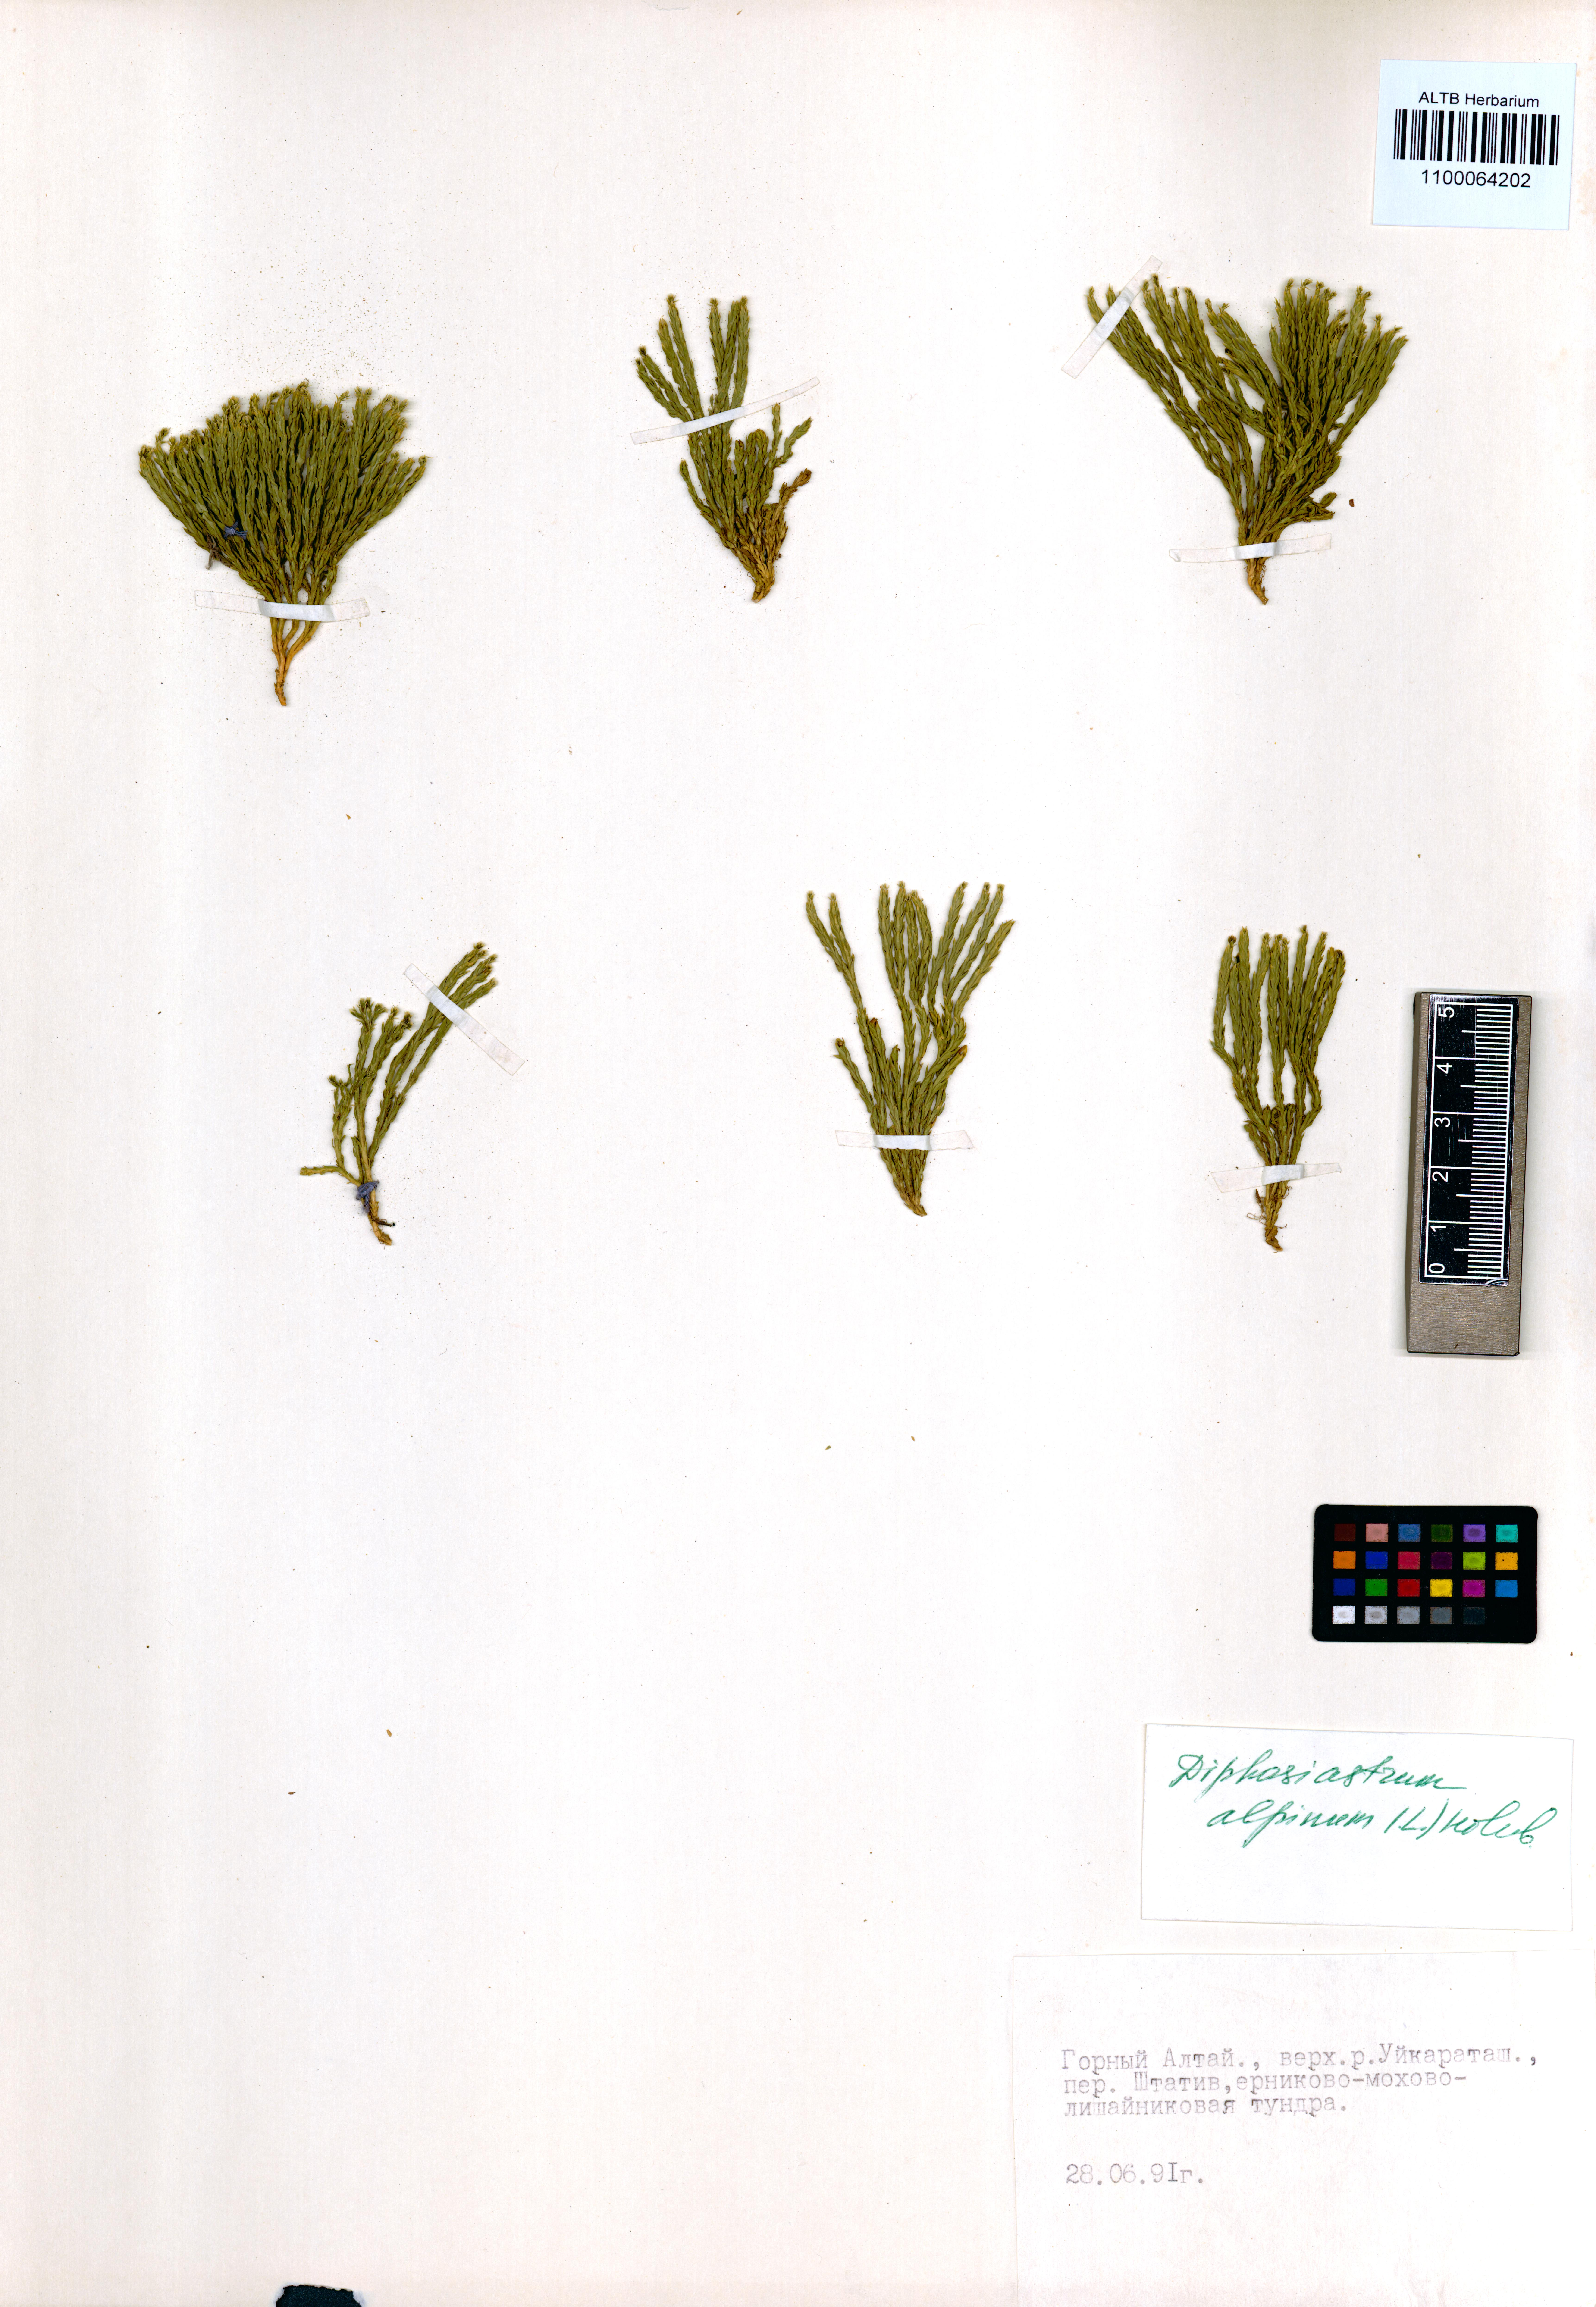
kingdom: Plantae
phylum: Tracheophyta
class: Lycopodiopsida
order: Lycopodiales
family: Lycopodiaceae
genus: Diphasiastrum
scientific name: Diphasiastrum alpinum
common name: Alpine clubmoss
